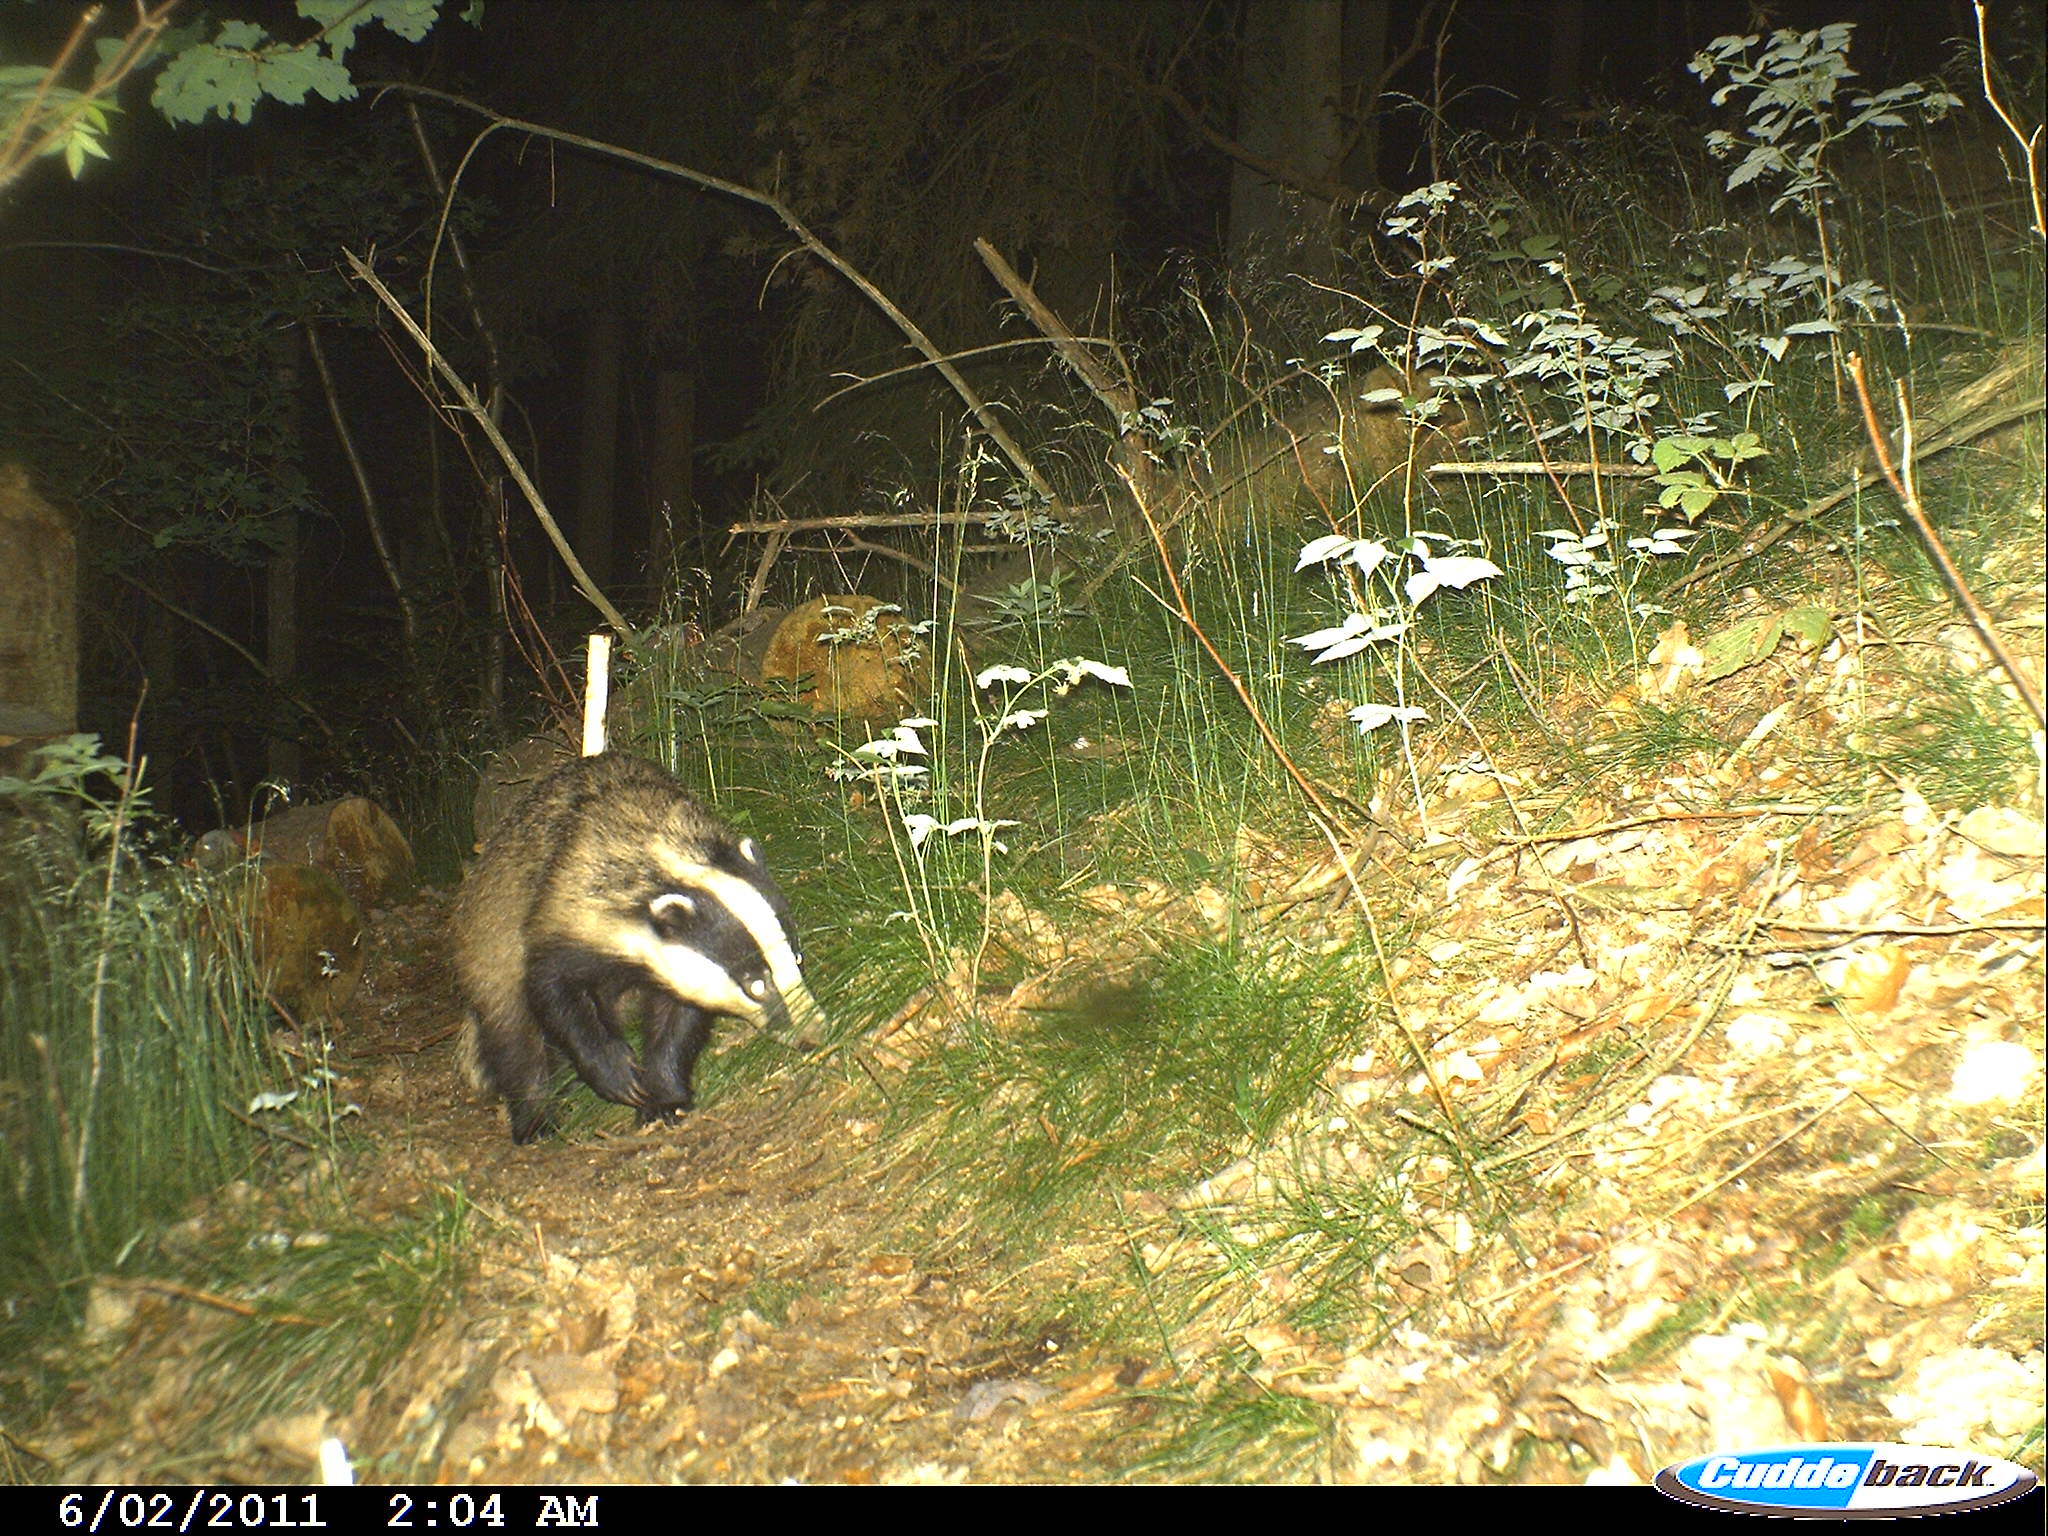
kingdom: Animalia
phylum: Chordata
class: Mammalia
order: Carnivora
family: Mustelidae
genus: Meles
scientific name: Meles meles
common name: Eurasian badger
